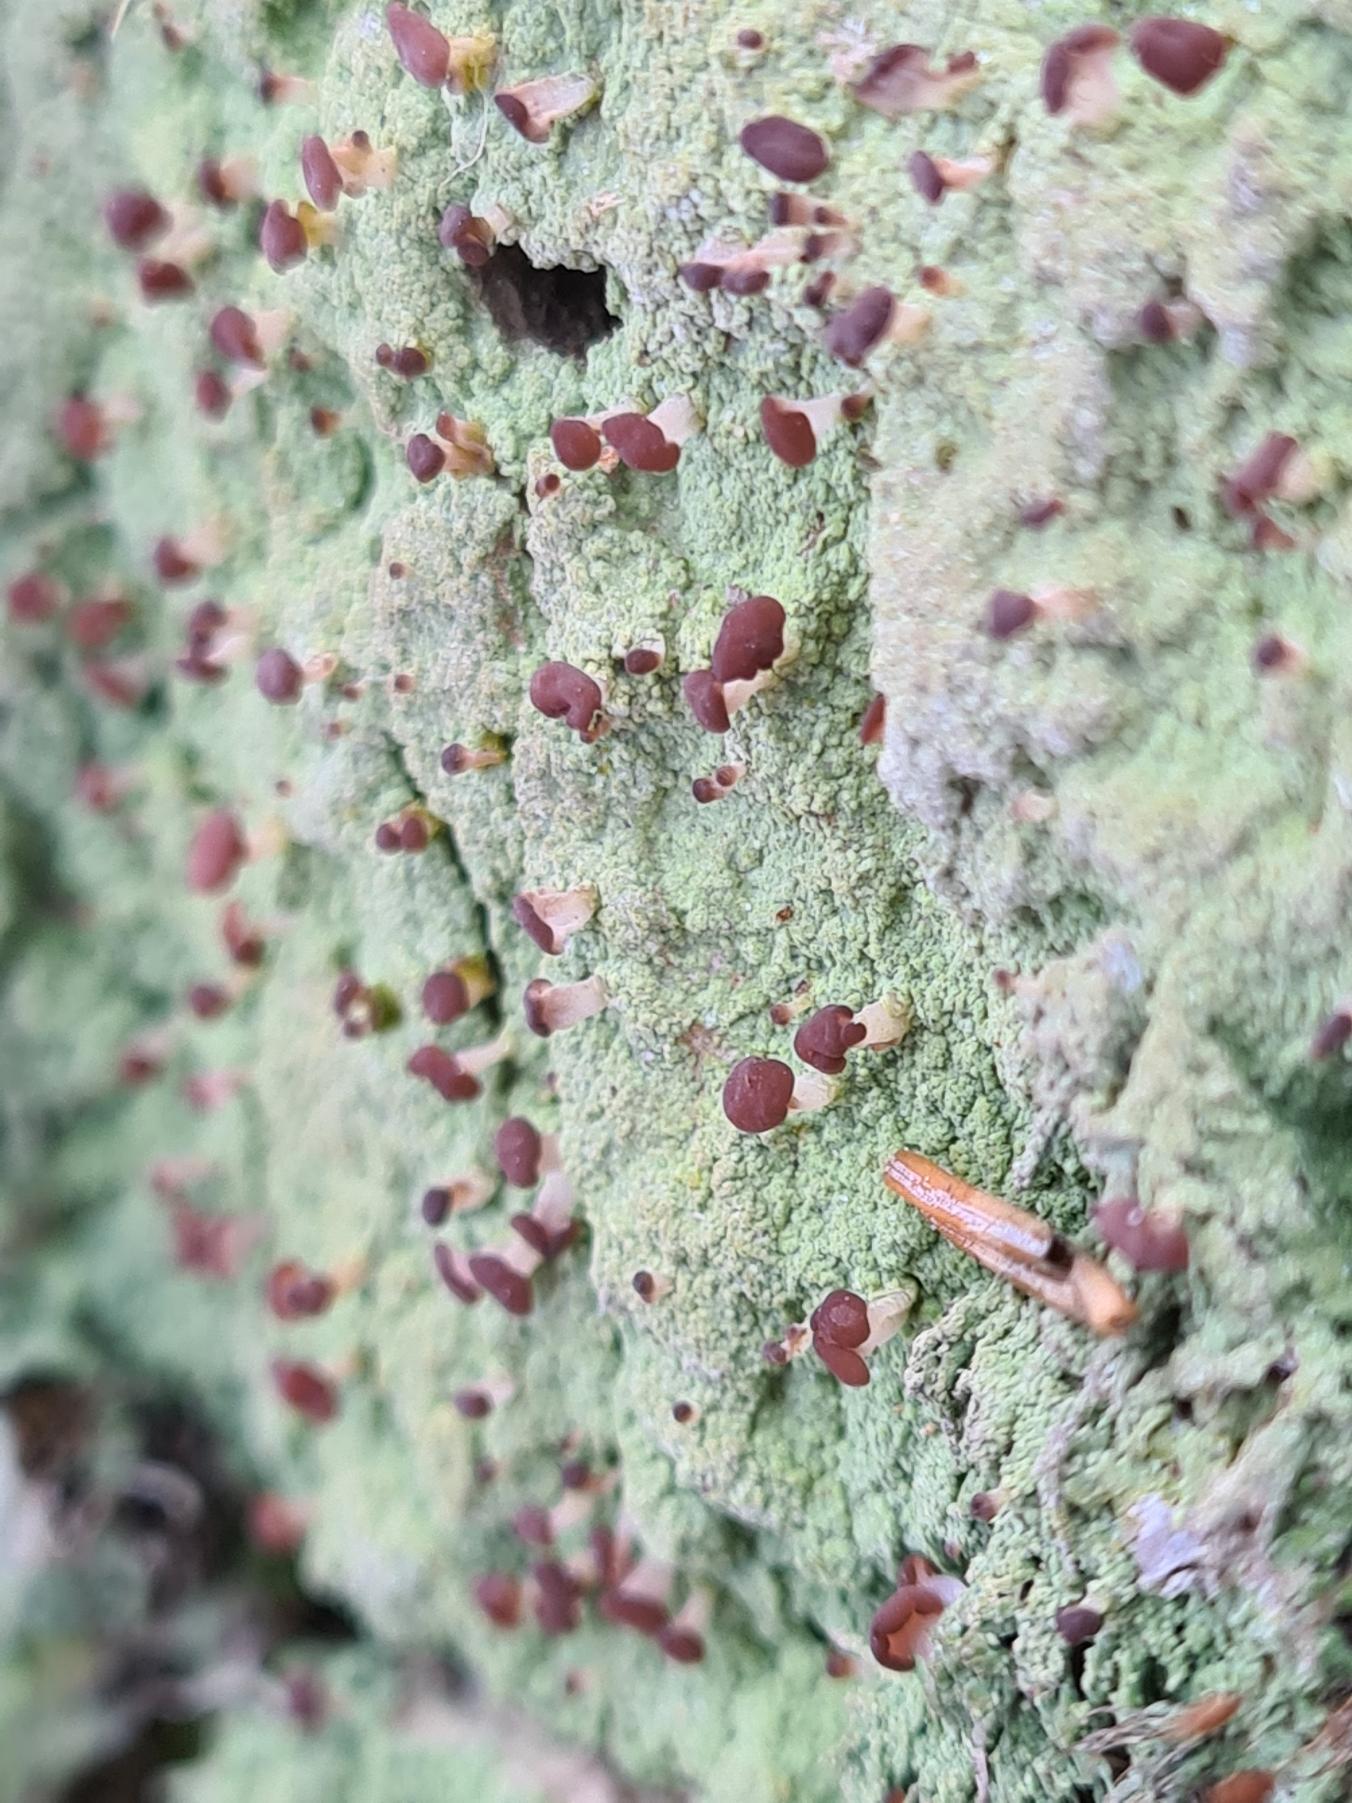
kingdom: Fungi
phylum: Ascomycota
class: Lecanoromycetes
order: Baeomycetales
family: Baeomycetaceae
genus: Baeomyces
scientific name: Baeomyces rufus
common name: Rødbrun svampelav
